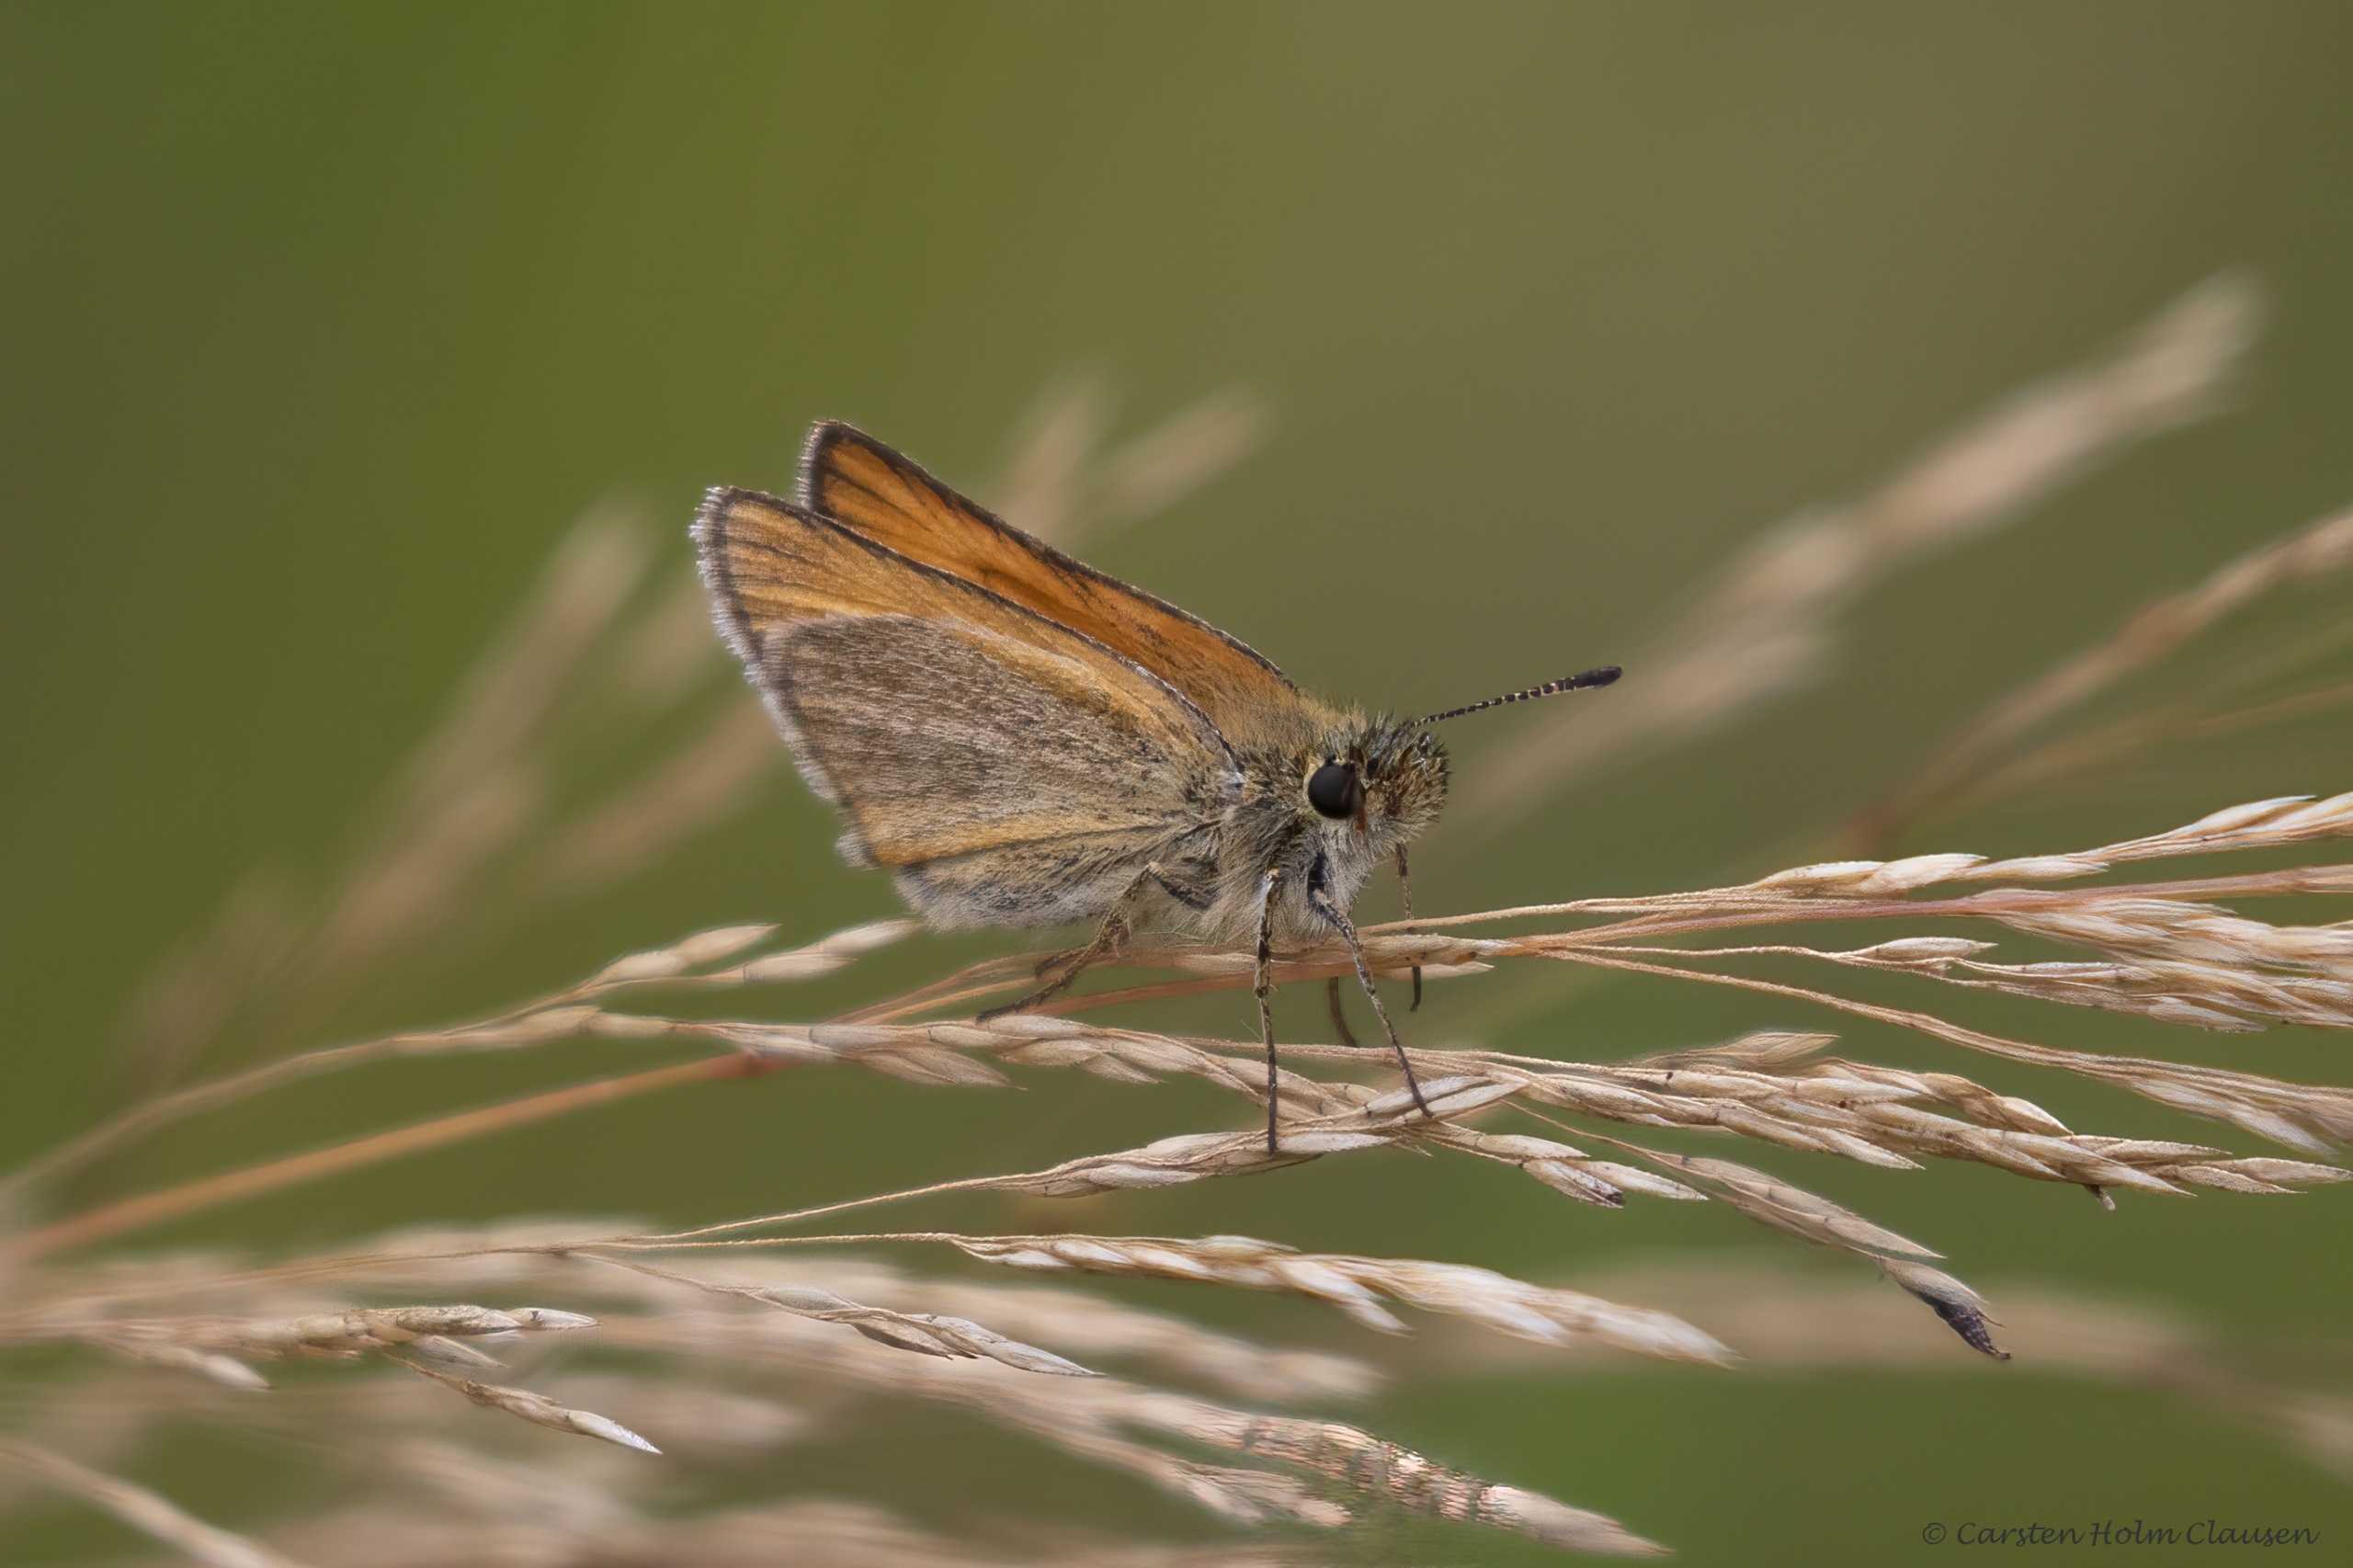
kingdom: Animalia
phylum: Arthropoda
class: Insecta
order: Lepidoptera
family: Hesperiidae
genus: Thymelicus
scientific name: Thymelicus lineola
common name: Stregbredpande
